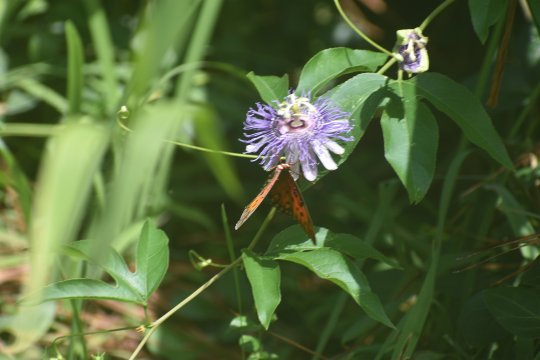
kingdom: Animalia
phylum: Arthropoda
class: Insecta
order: Lepidoptera
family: Nymphalidae
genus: Dione
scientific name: Dione vanillae
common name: Gulf Fritillary
